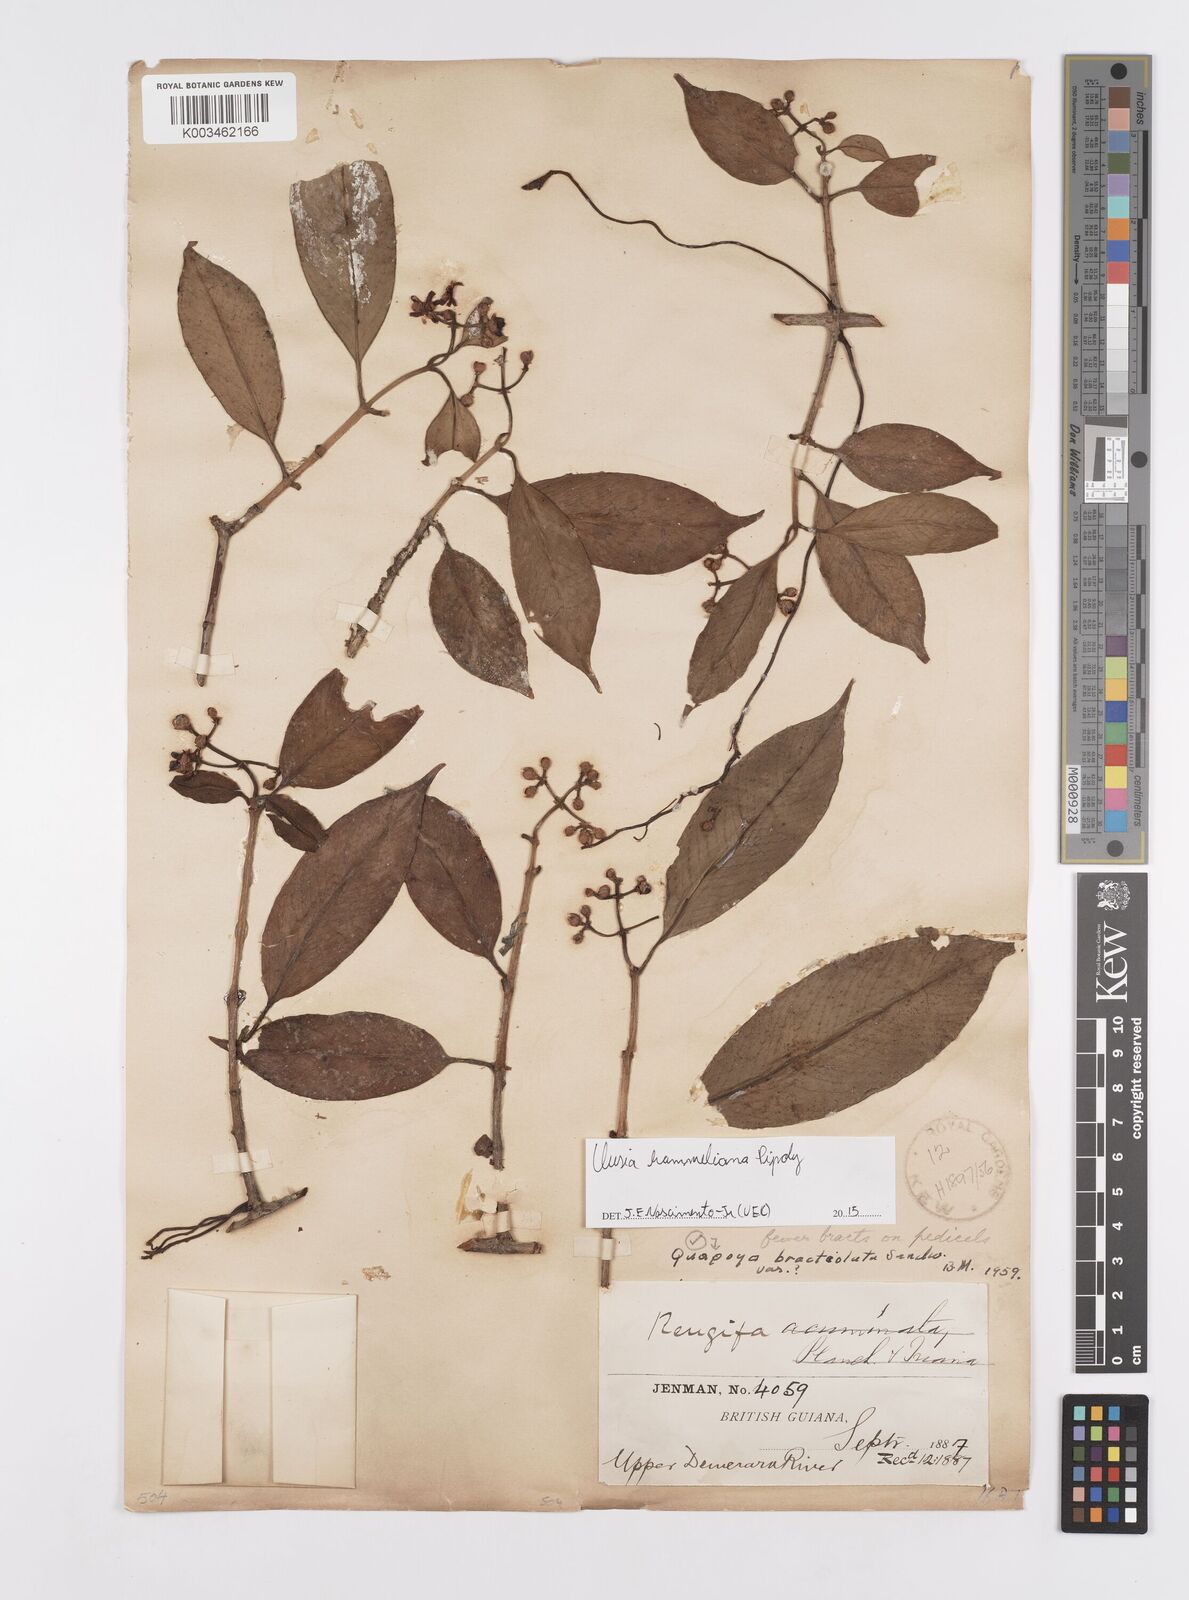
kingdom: Plantae
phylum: Tracheophyta
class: Magnoliopsida
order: Malpighiales
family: Clusiaceae
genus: Clusia
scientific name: Clusia hammeliana
